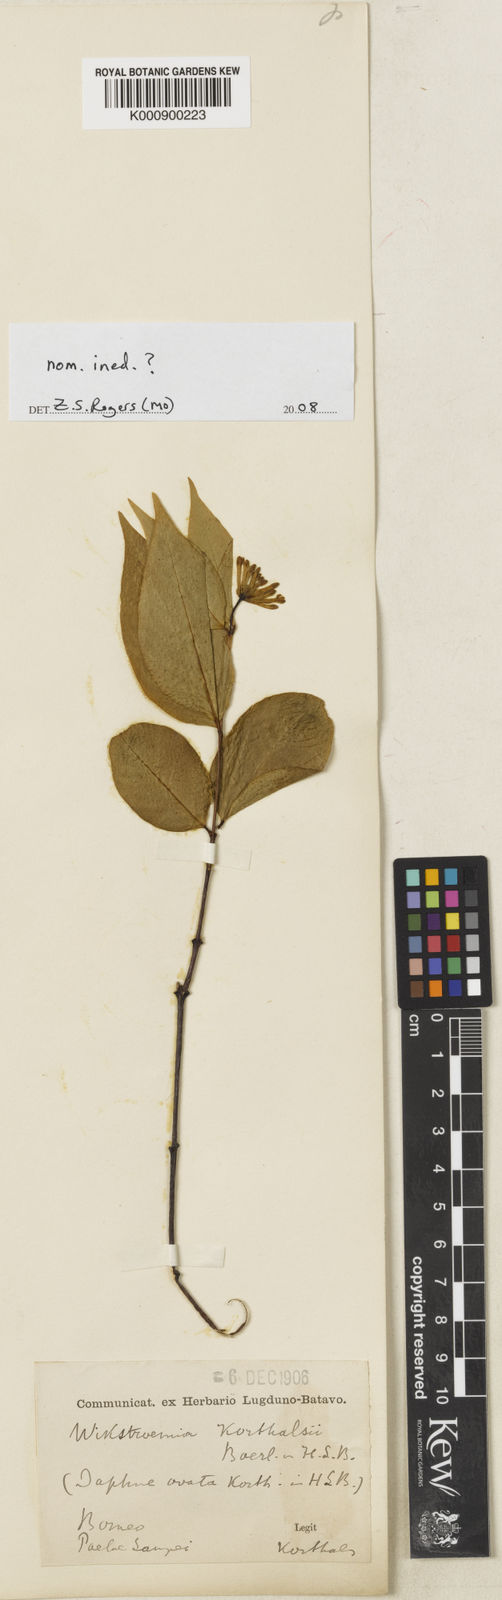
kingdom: Plantae
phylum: Tracheophyta
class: Magnoliopsida
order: Malvales
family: Thymelaeaceae
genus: Wikstroemia
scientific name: Wikstroemia ovata
